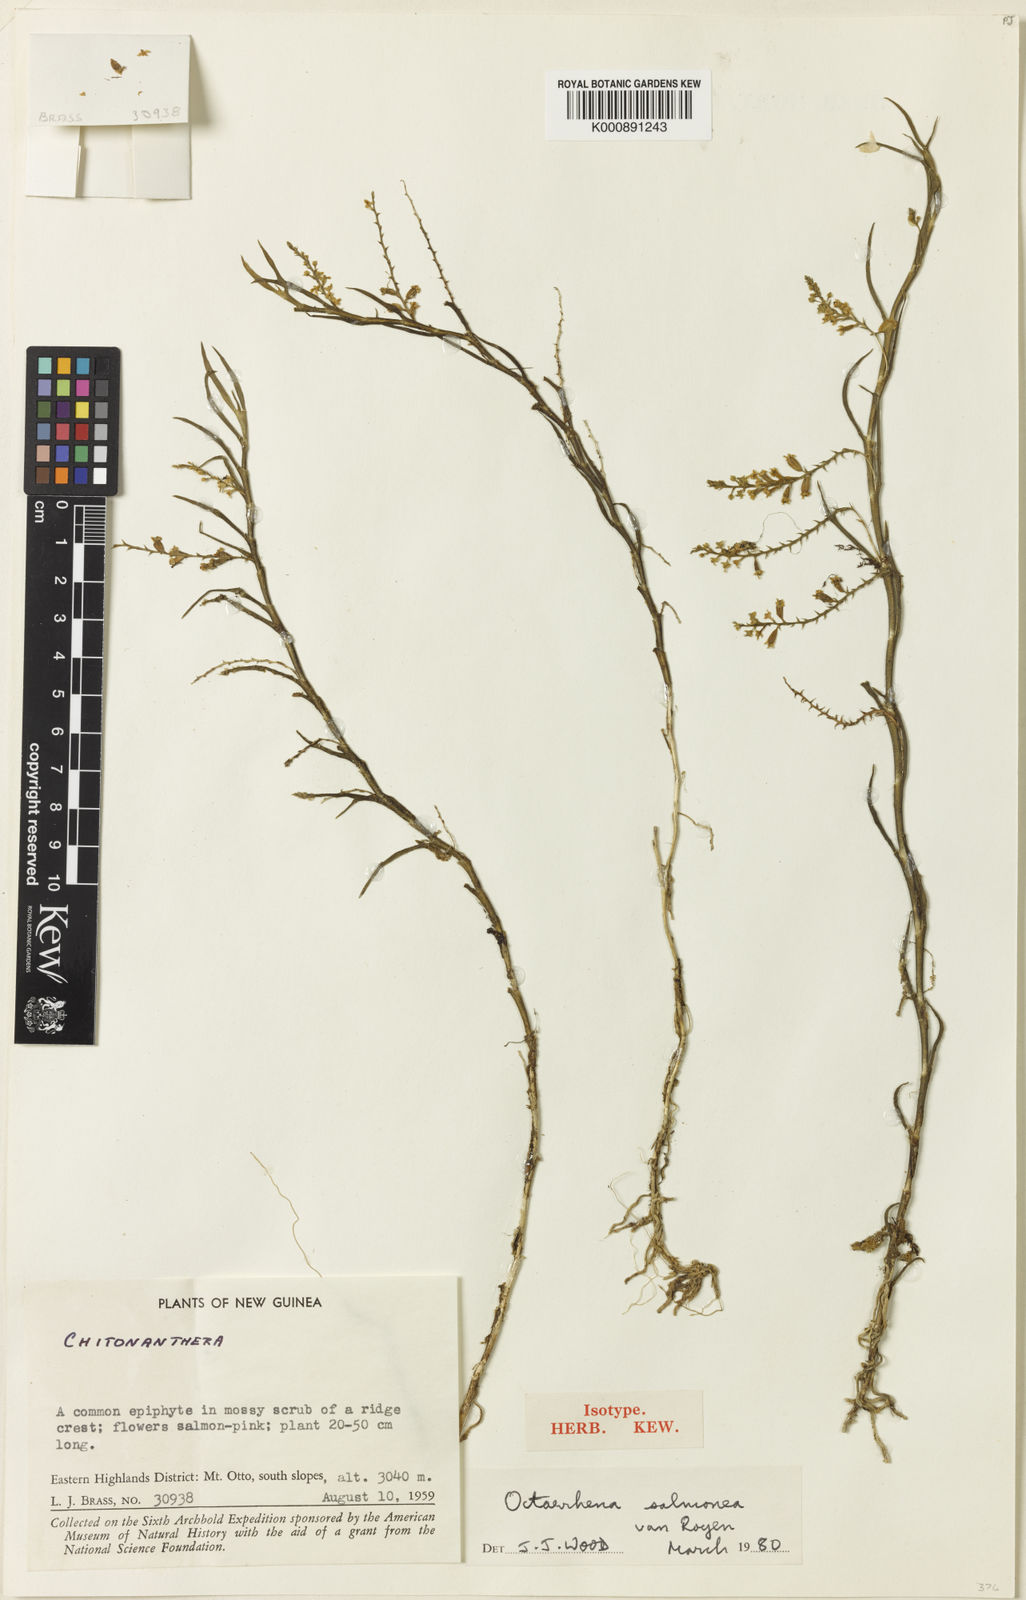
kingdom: Plantae
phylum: Tracheophyta
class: Liliopsida
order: Asparagales
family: Orchidaceae
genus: Octarrhena
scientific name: Octarrhena salmonea
